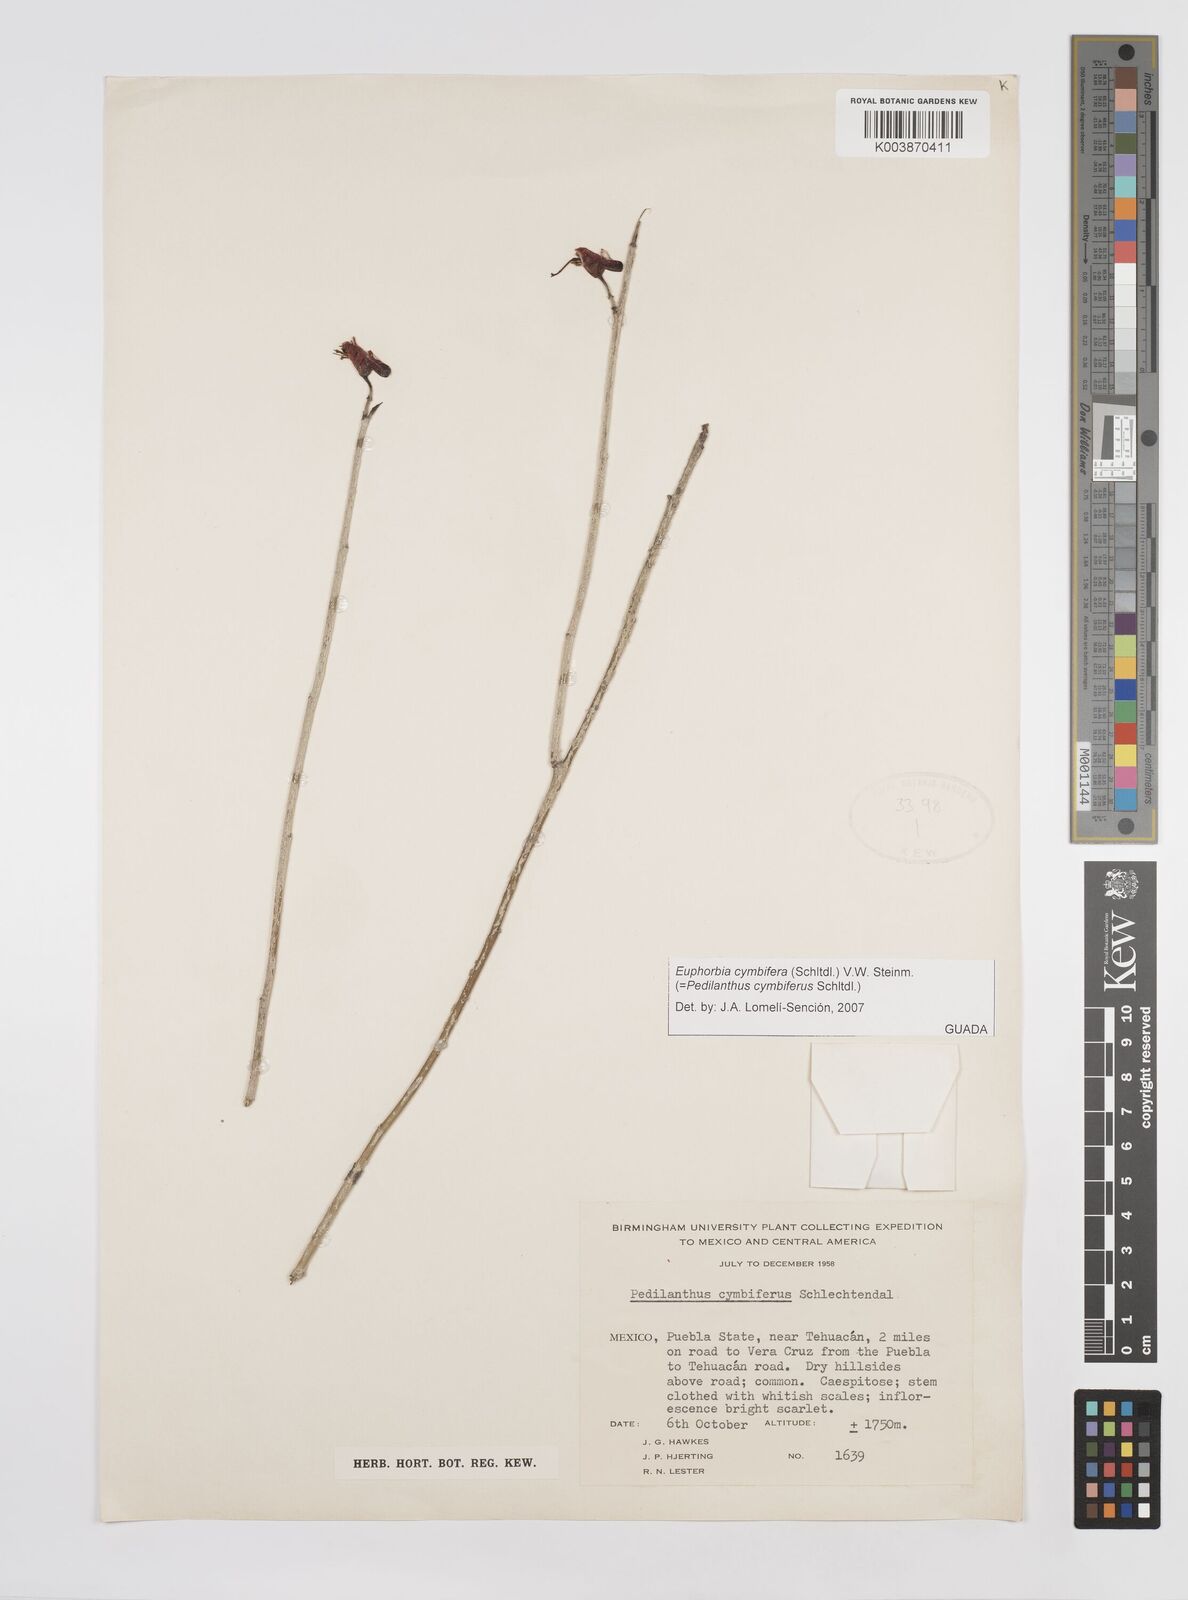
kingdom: Plantae
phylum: Tracheophyta
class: Magnoliopsida
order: Malpighiales
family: Euphorbiaceae
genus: Euphorbia
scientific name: Euphorbia cymbifera
